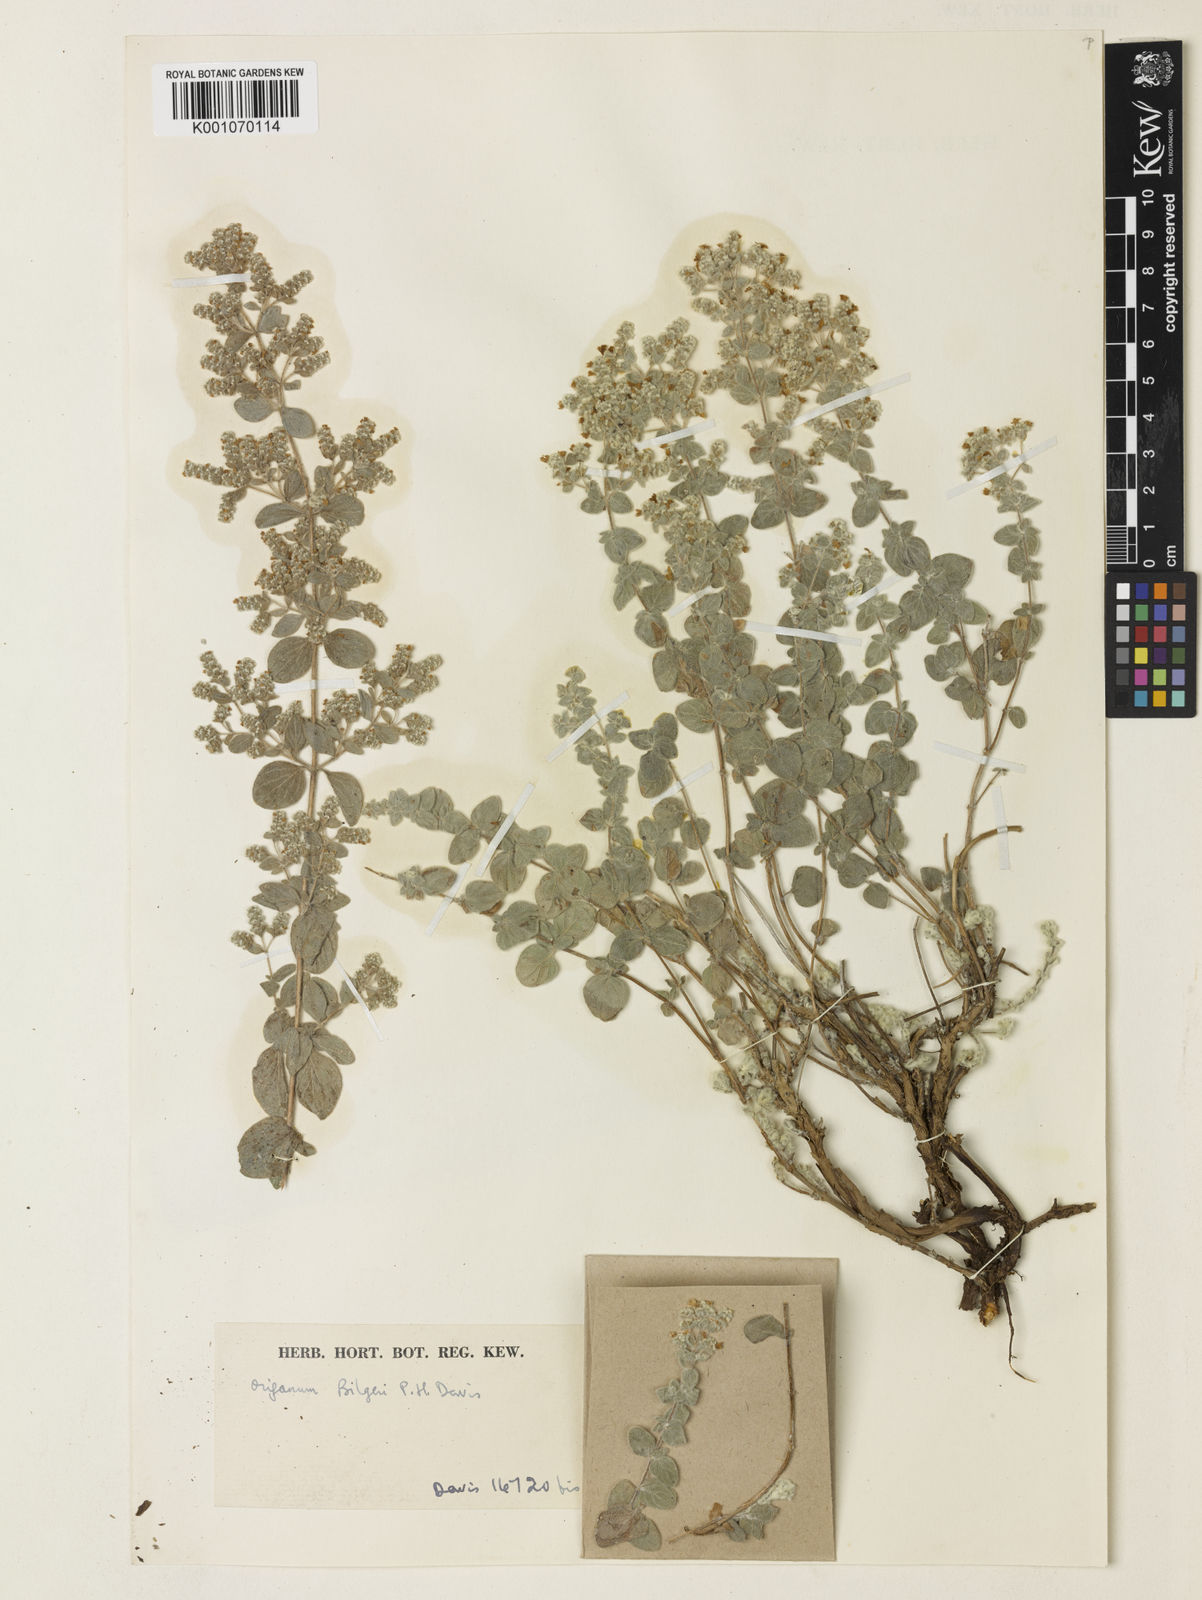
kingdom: Plantae
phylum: Tracheophyta
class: Magnoliopsida
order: Lamiales
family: Lamiaceae
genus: Origanum
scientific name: Origanum bilgeri
